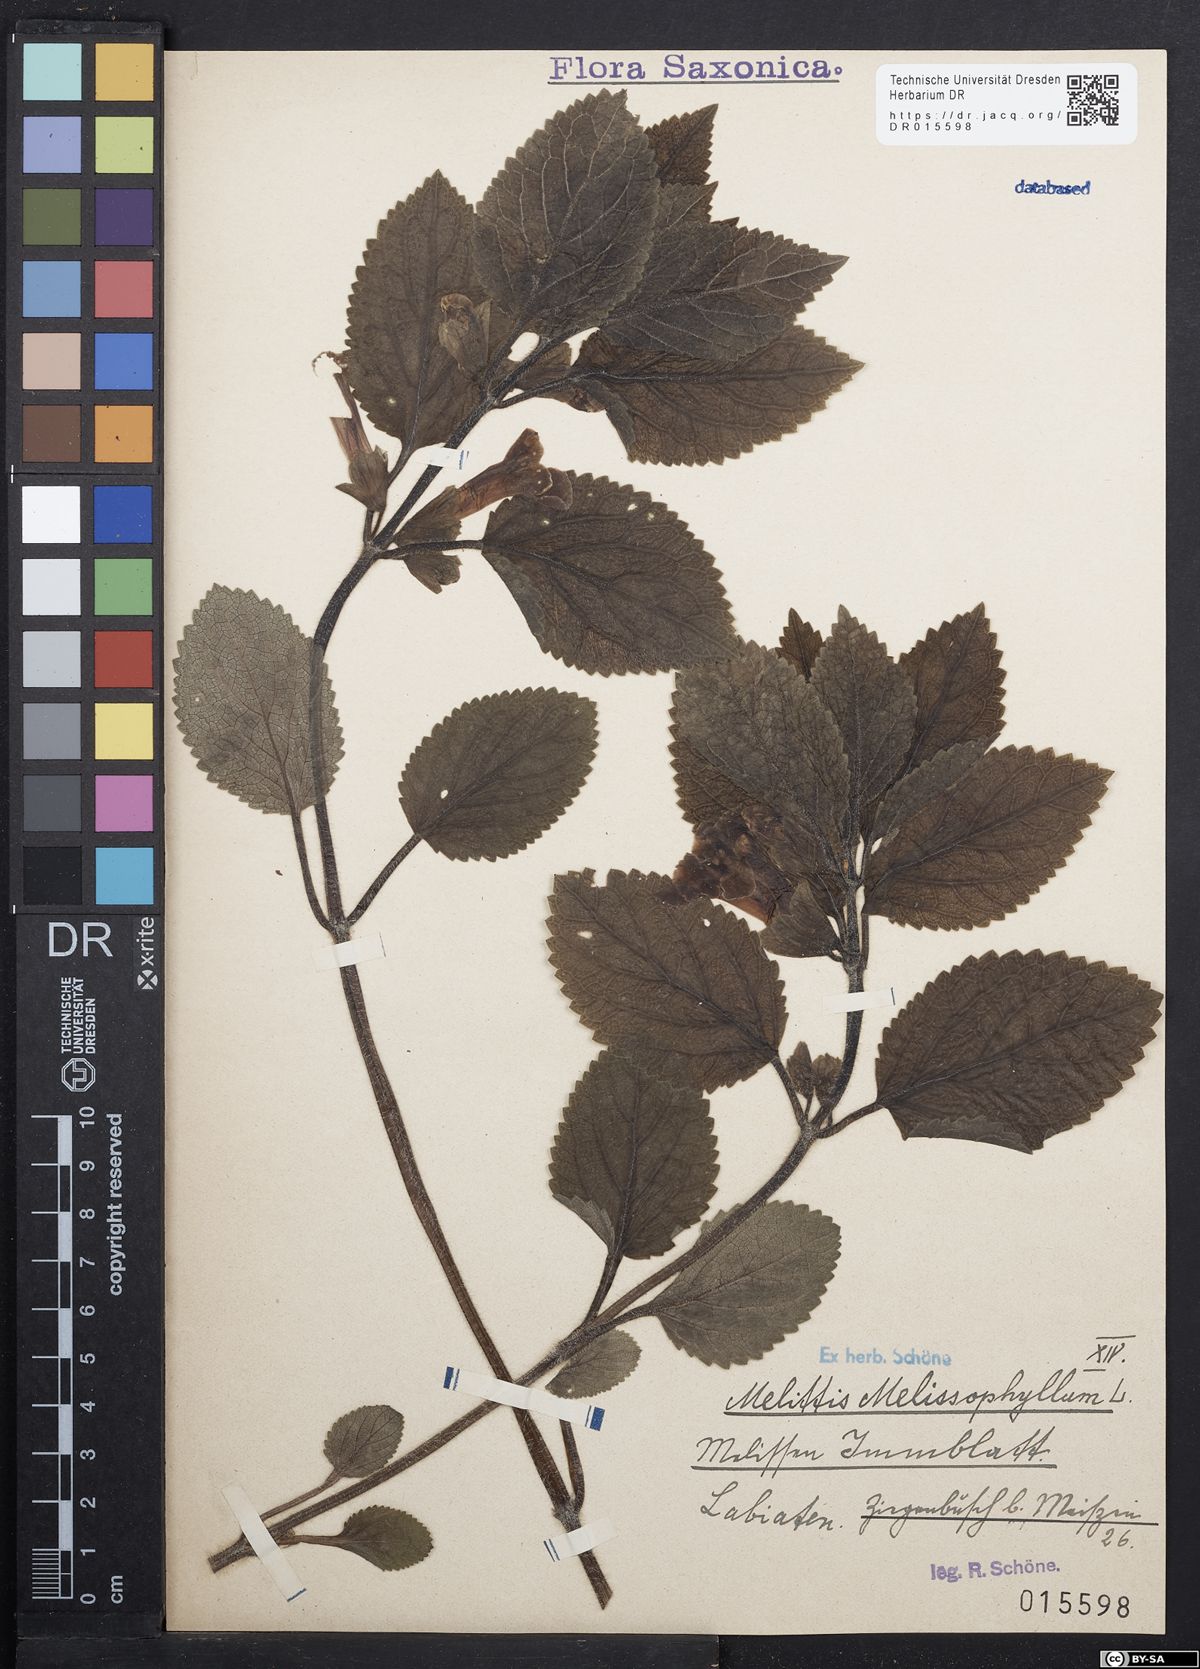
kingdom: Plantae
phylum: Tracheophyta
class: Magnoliopsida
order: Lamiales
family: Lamiaceae
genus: Melittis
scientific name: Melittis melissophyllum
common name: Bastard balm
